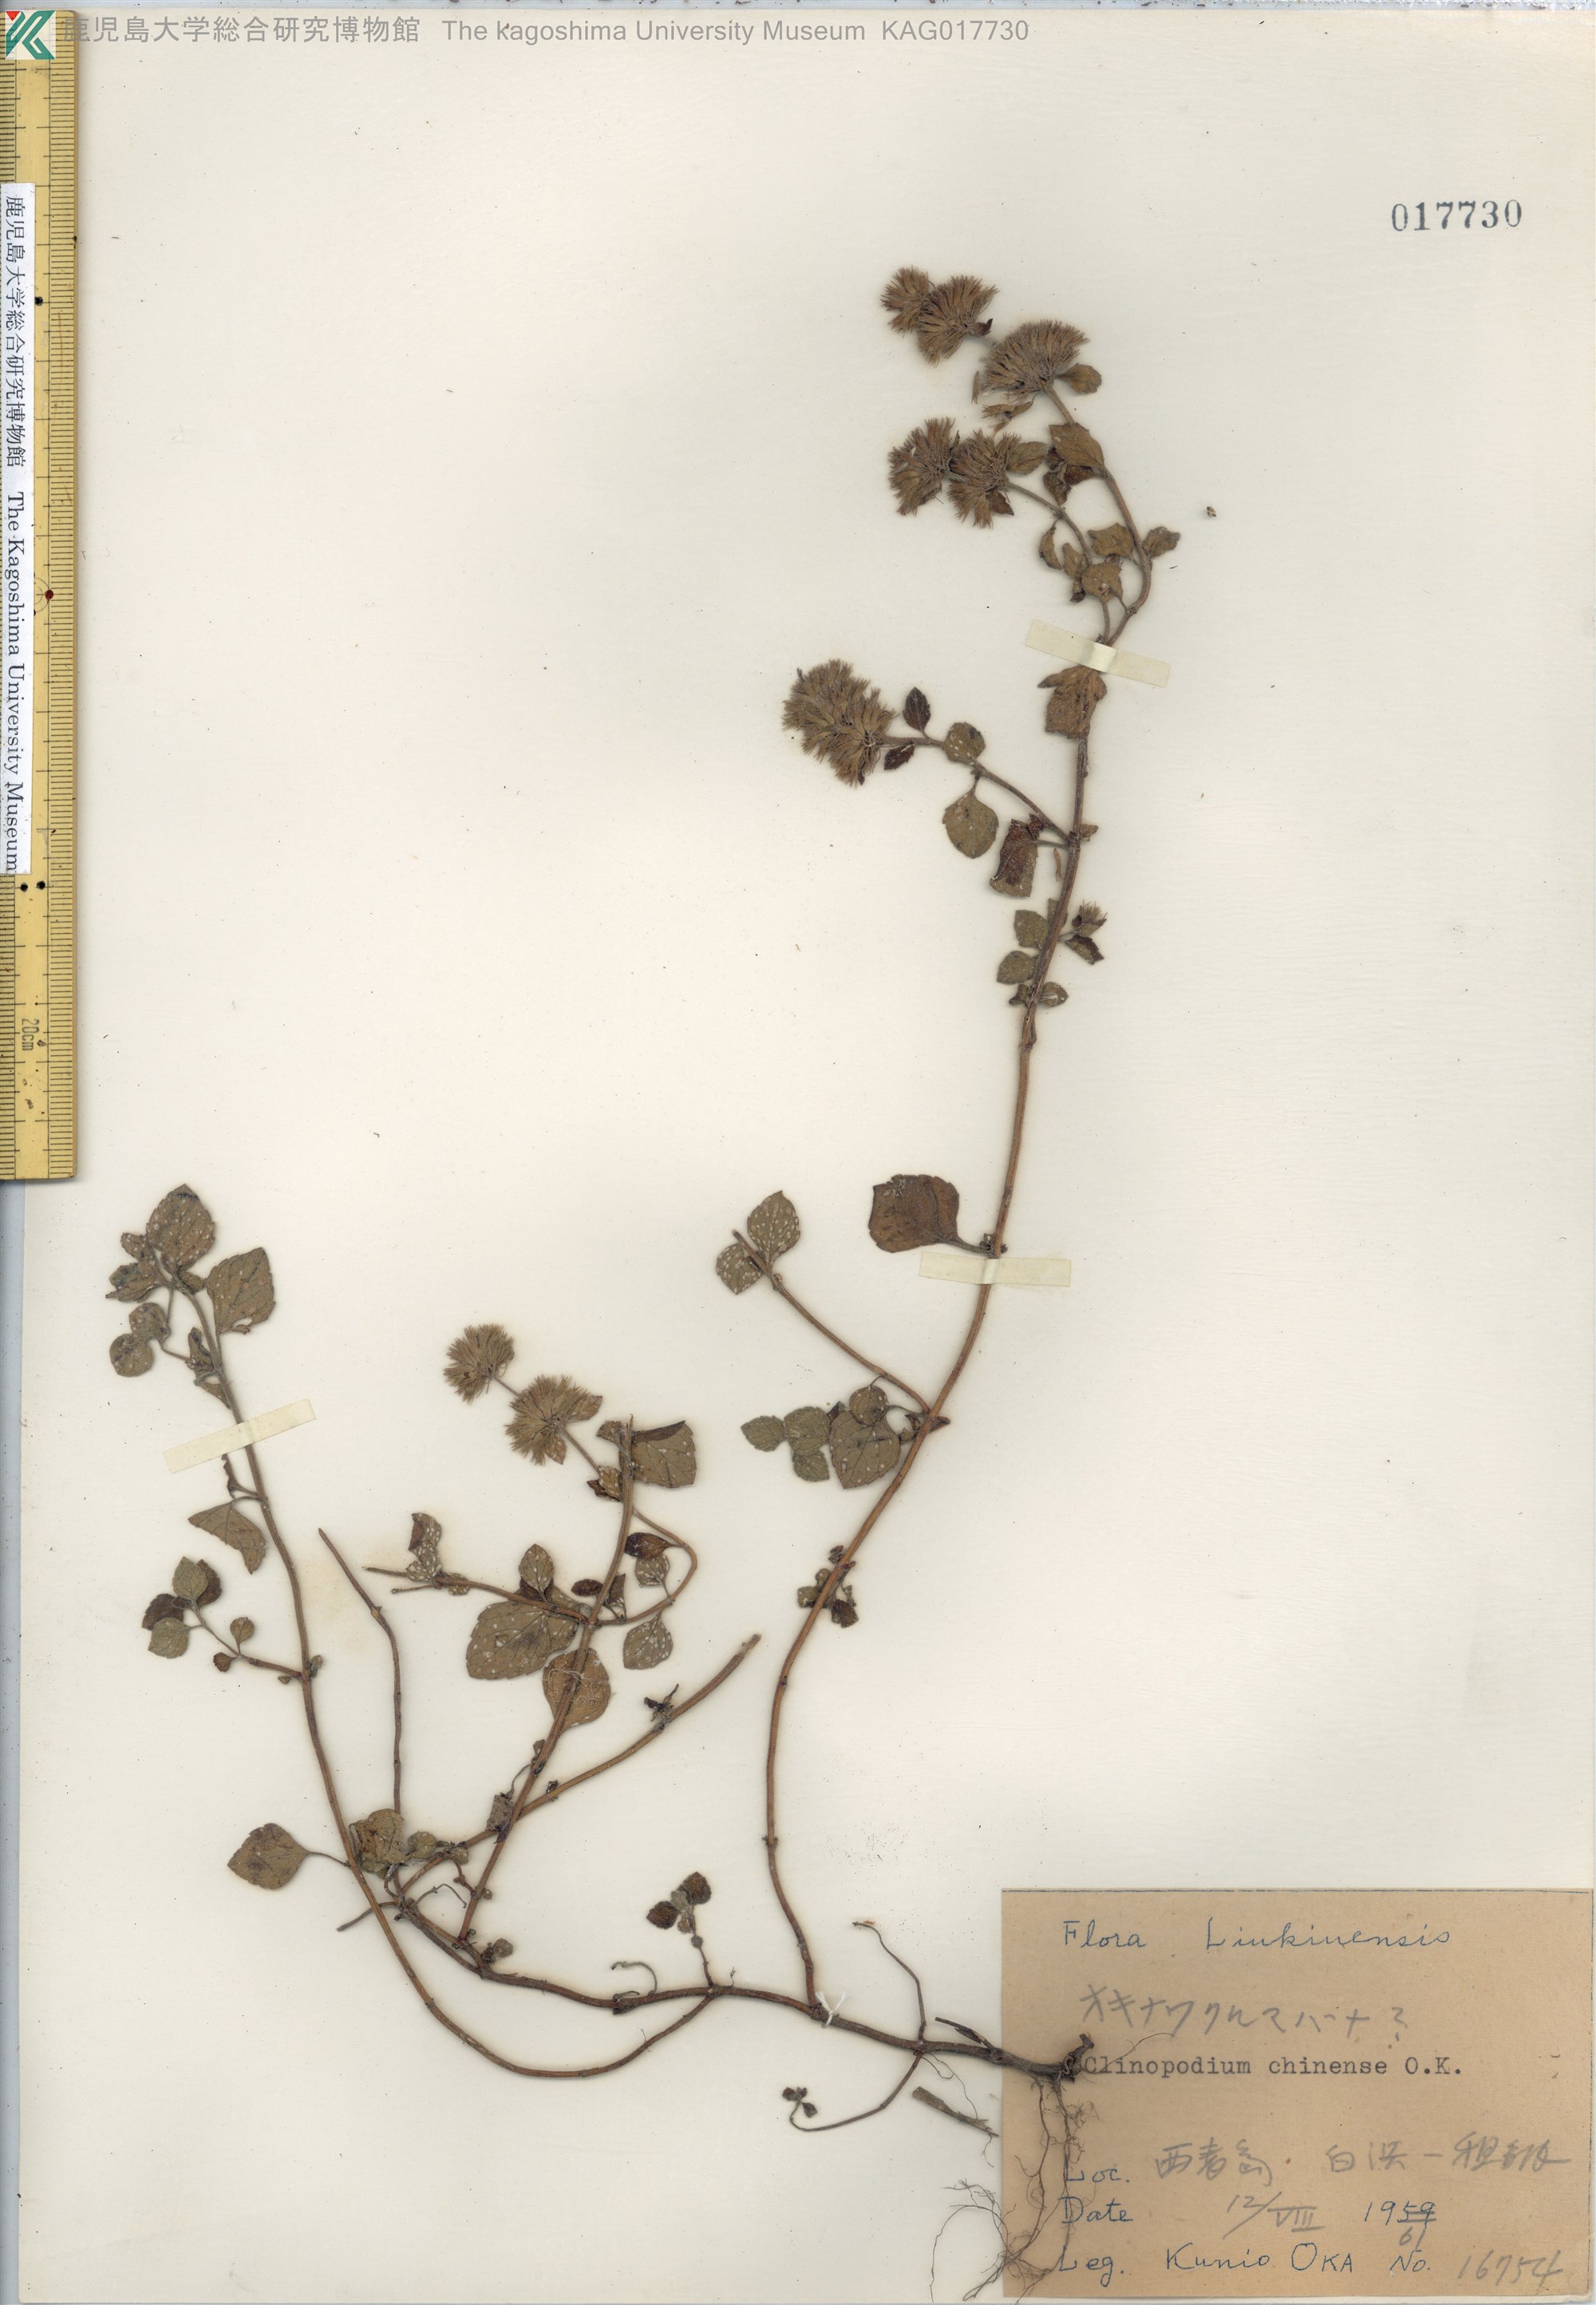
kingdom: Plantae
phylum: Tracheophyta
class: Magnoliopsida
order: Lamiales
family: Lamiaceae
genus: Clinopodium
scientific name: Clinopodium chinense
